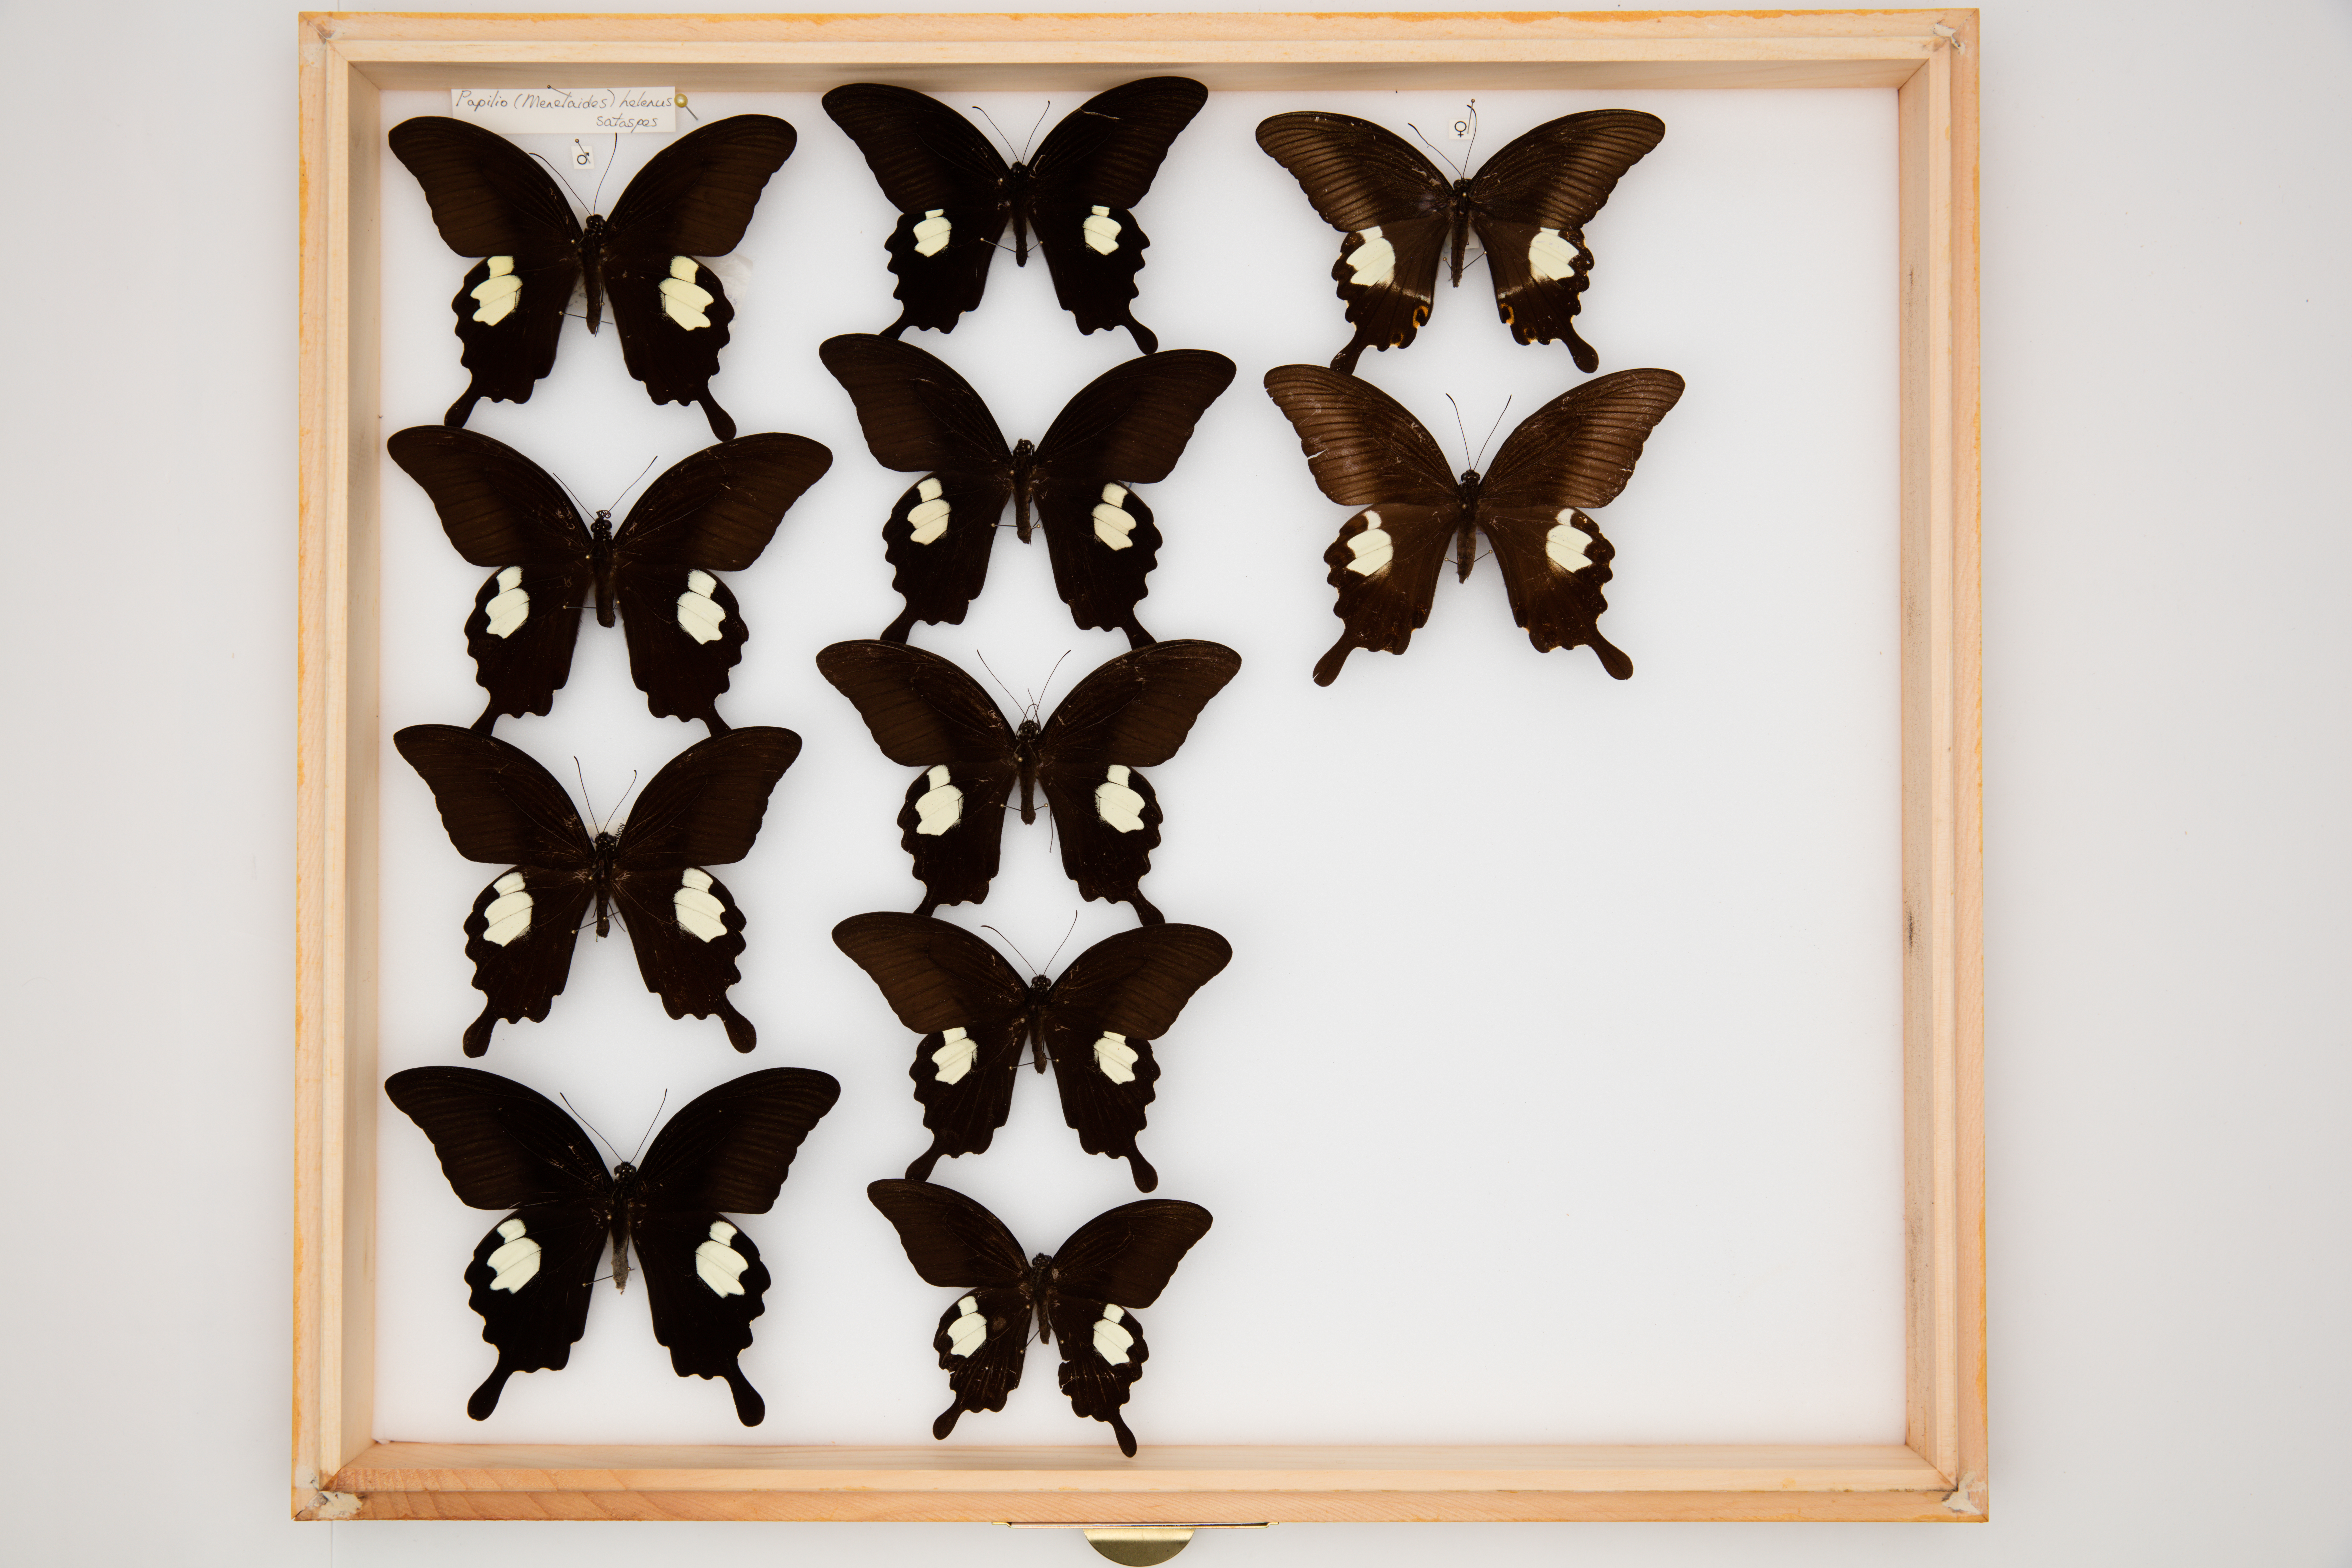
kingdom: Animalia
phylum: Arthropoda
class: Insecta
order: Lepidoptera
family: Papilionidae
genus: Papilio
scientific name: Papilio sataspes
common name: Sulawesi red helen
